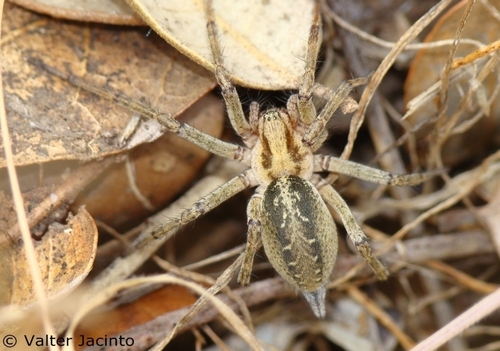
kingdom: Animalia
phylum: Arthropoda
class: Arachnida
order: Araneae
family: Agelenidae
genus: Agelena
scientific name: Agelena labyrinthica
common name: Labyrinth spider
